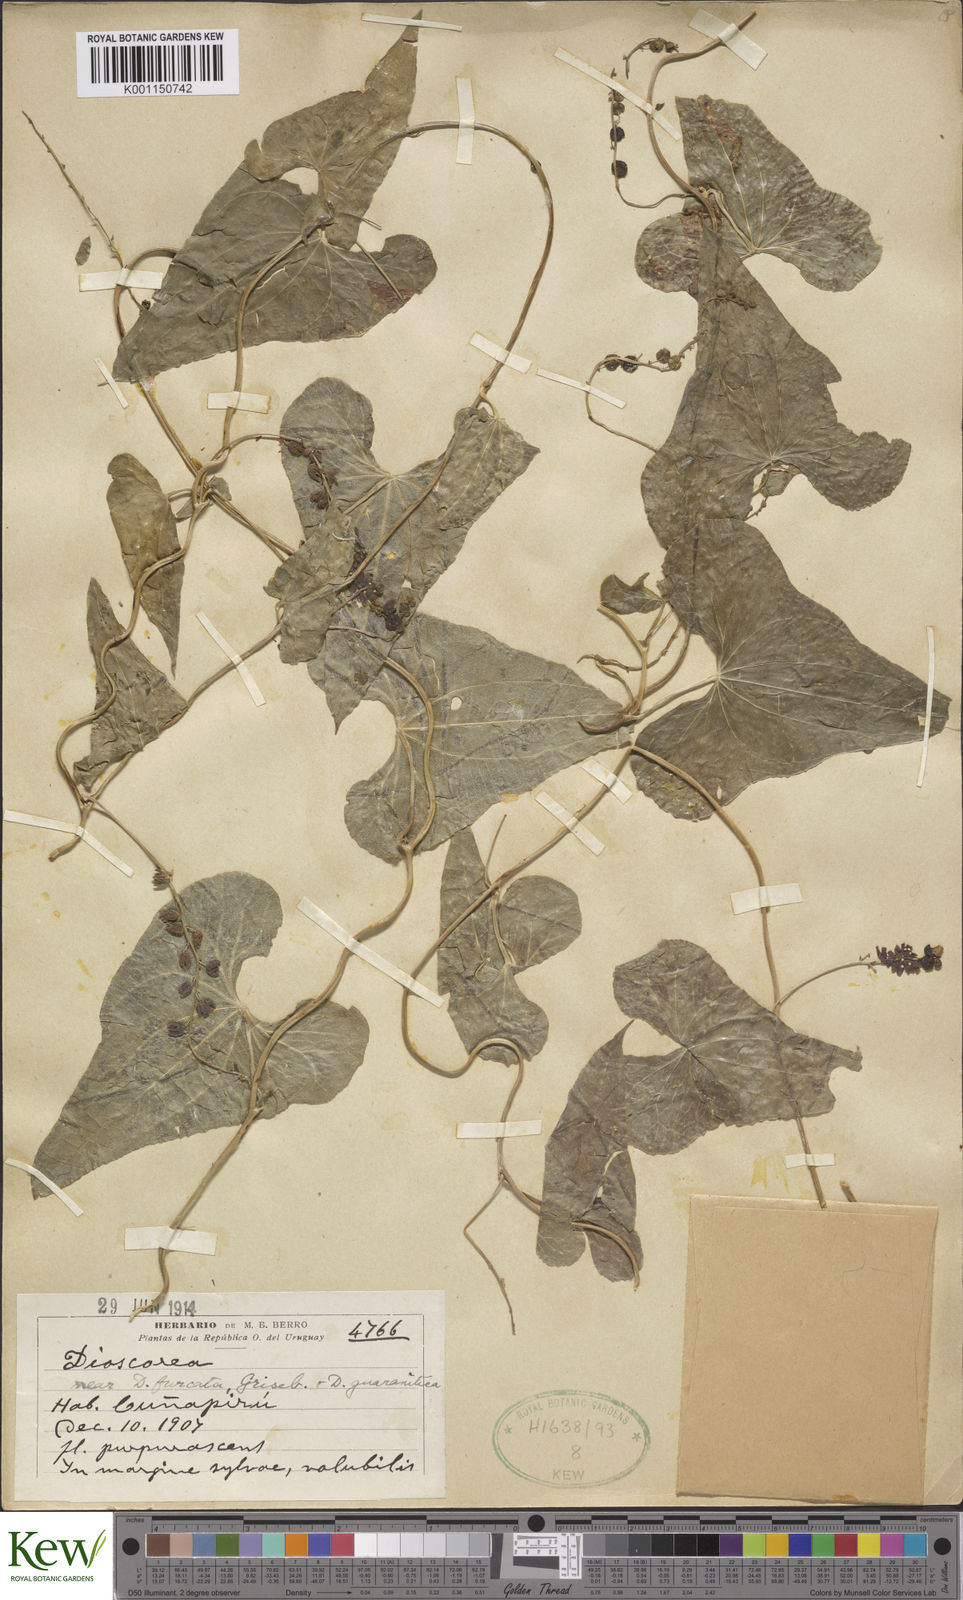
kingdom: Plantae
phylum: Tracheophyta
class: Liliopsida
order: Dioscoreales
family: Dioscoreaceae
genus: Dioscorea
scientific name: Dioscorea trifurcata
